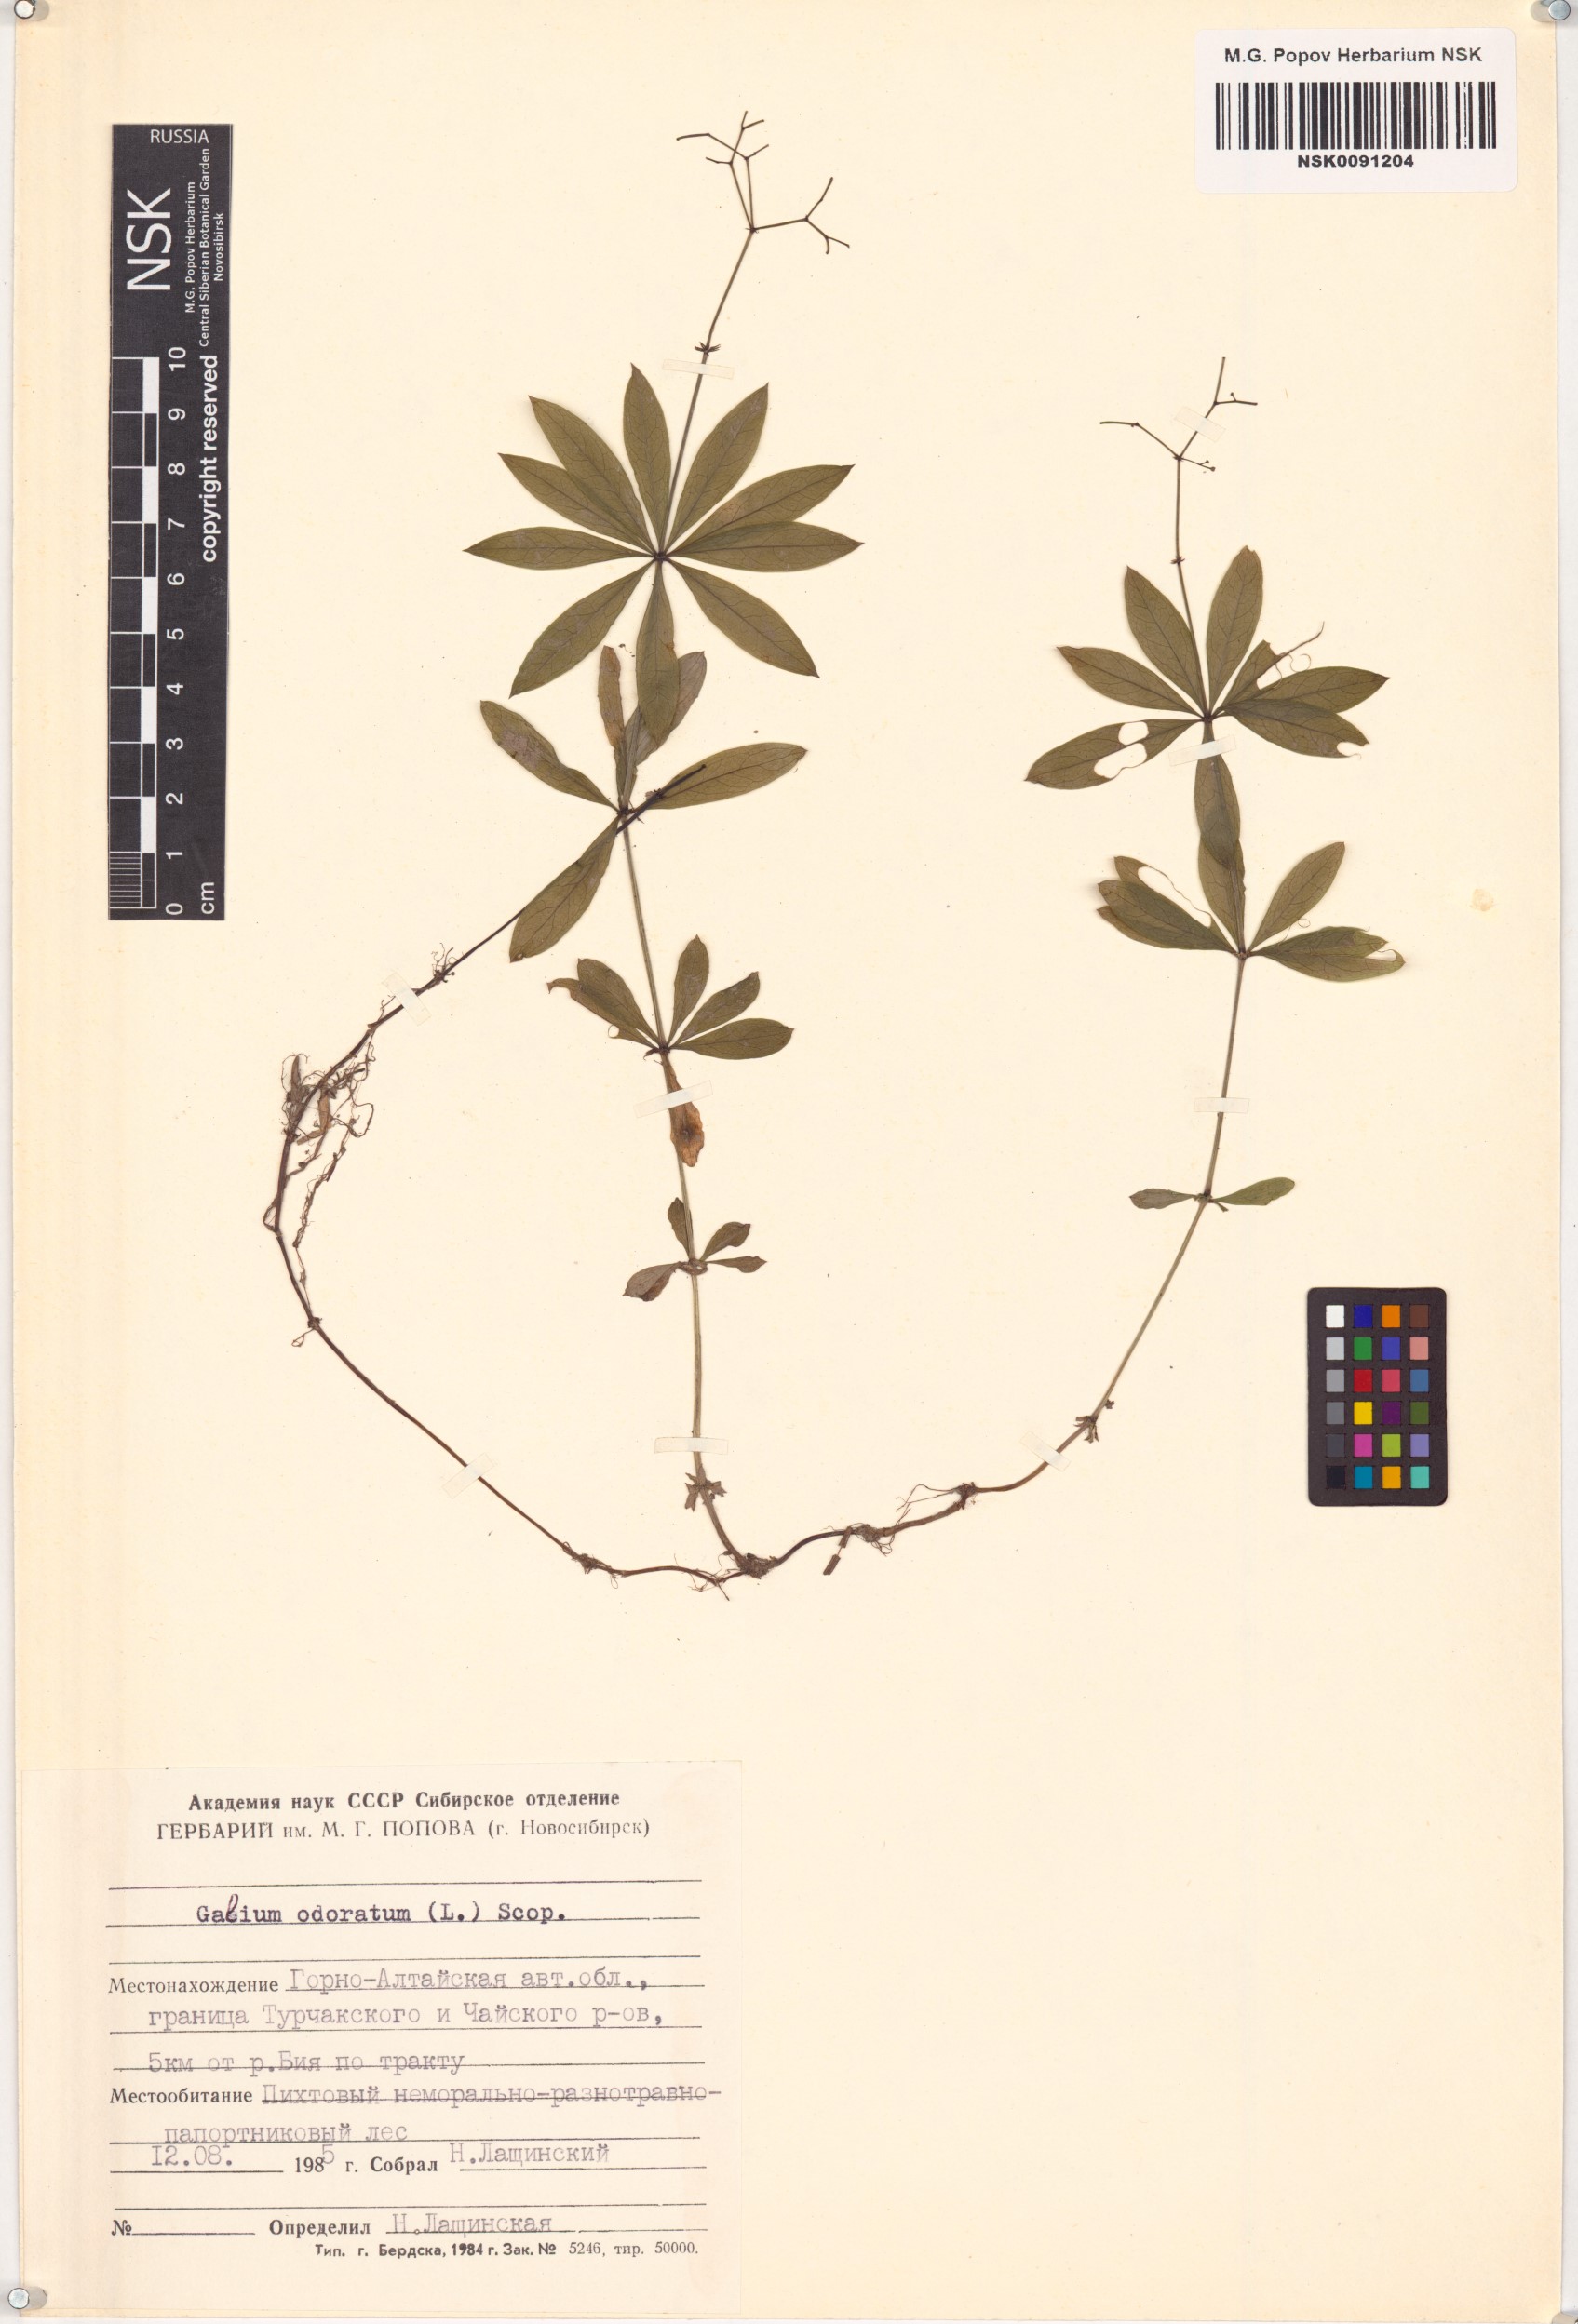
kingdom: Plantae
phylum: Tracheophyta
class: Magnoliopsida
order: Gentianales
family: Rubiaceae
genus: Galium
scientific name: Galium odoratum
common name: Sweet woodruff
